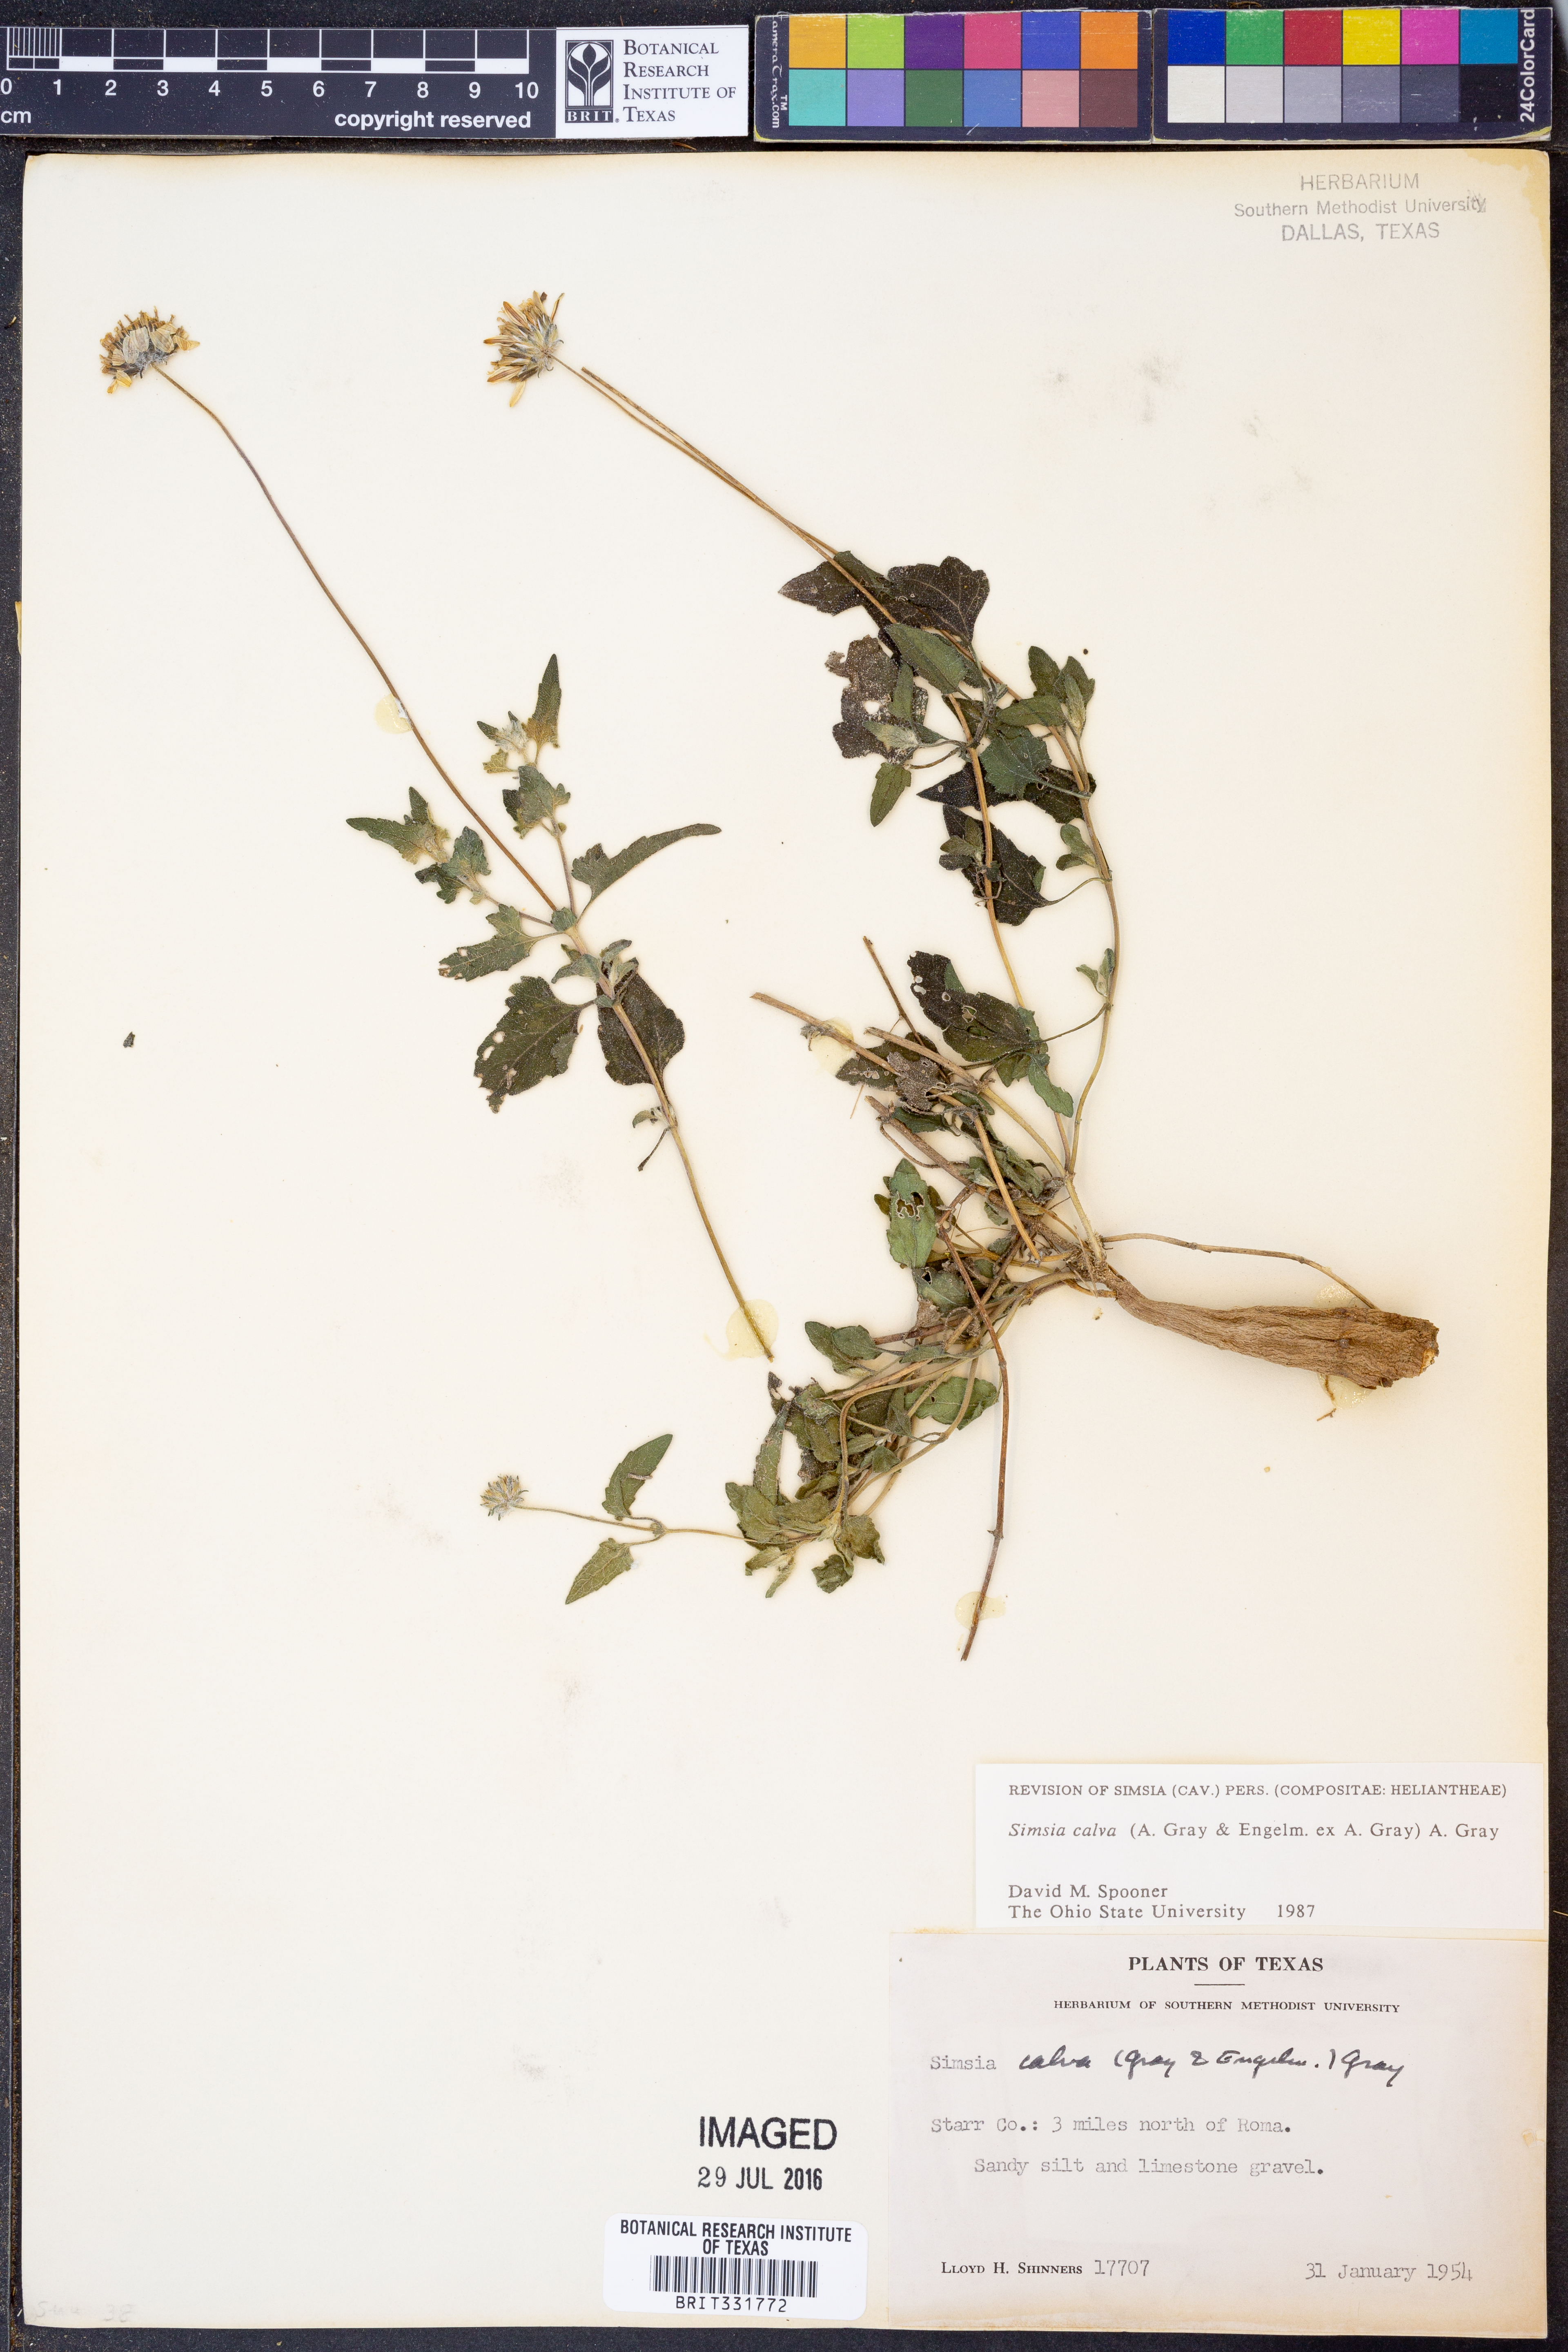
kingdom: Plantae
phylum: Tracheophyta
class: Magnoliopsida
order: Asterales
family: Asteraceae
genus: Simsia
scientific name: Simsia calva
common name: Awnless bush-sunflower
